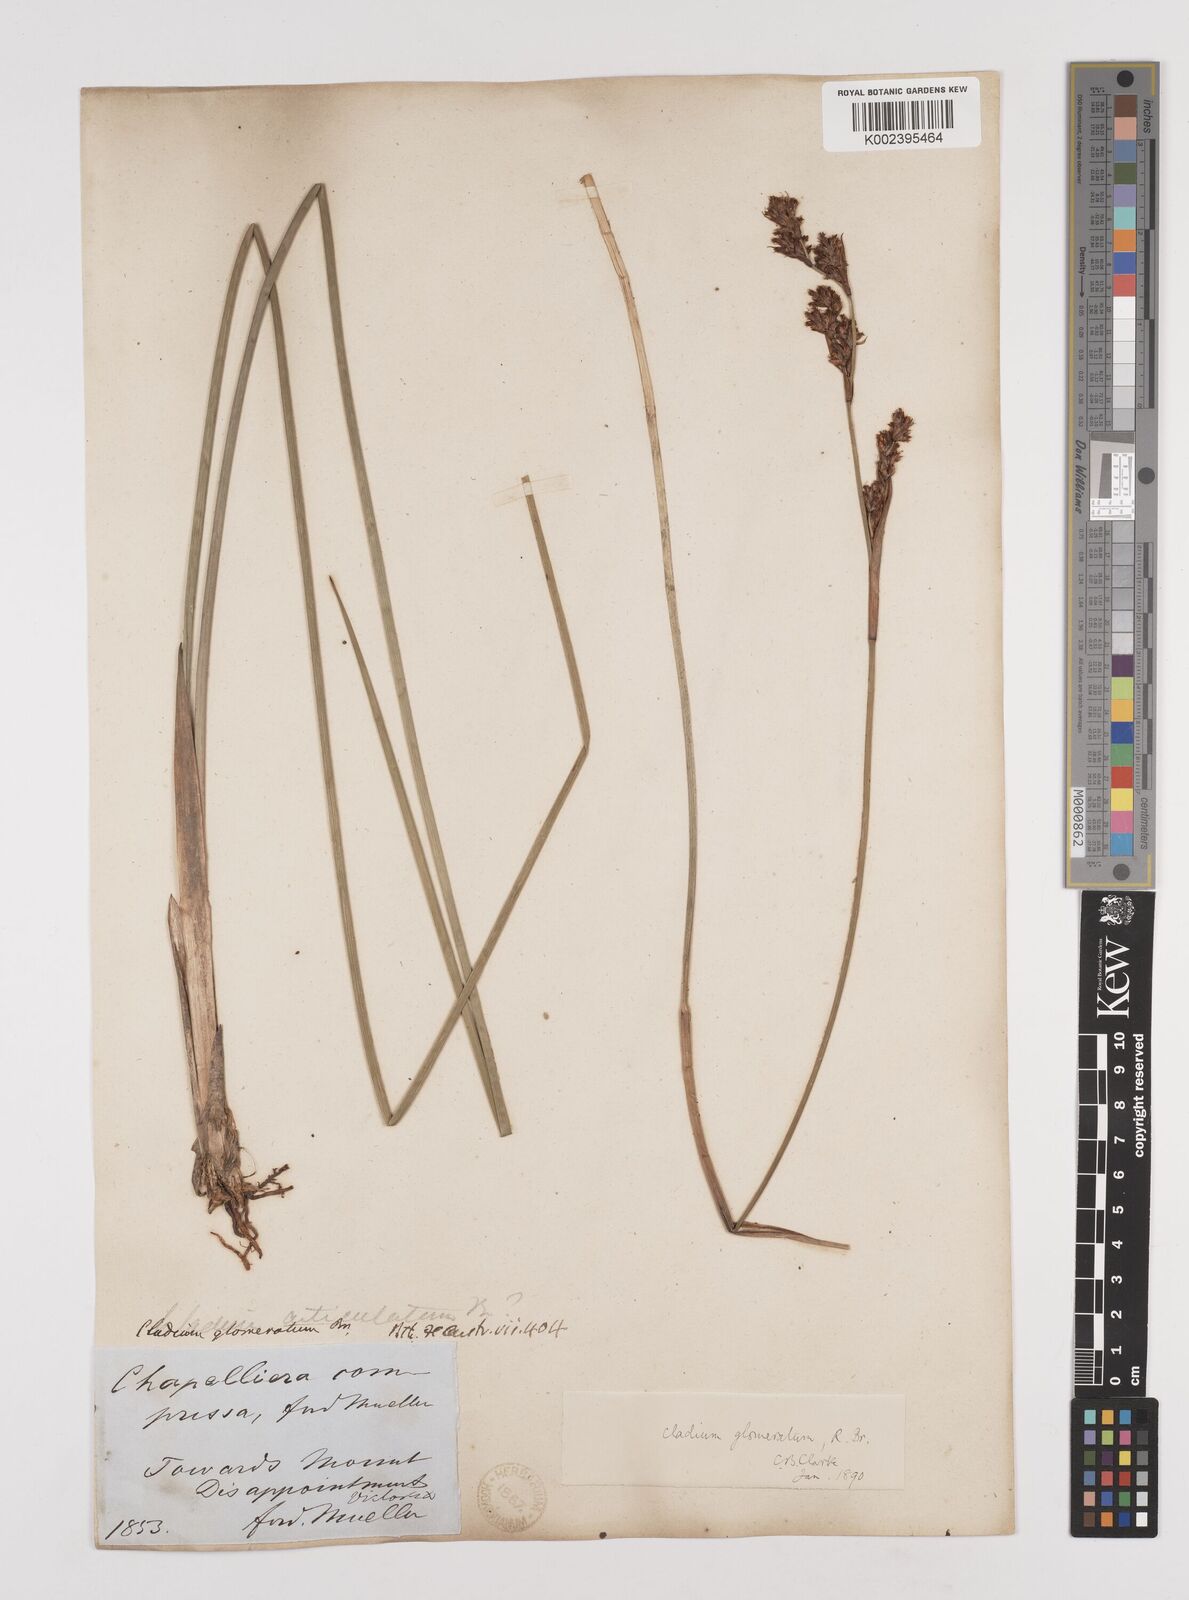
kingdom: Plantae
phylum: Tracheophyta
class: Liliopsida
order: Poales
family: Cyperaceae
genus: Machaerina
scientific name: Machaerina
